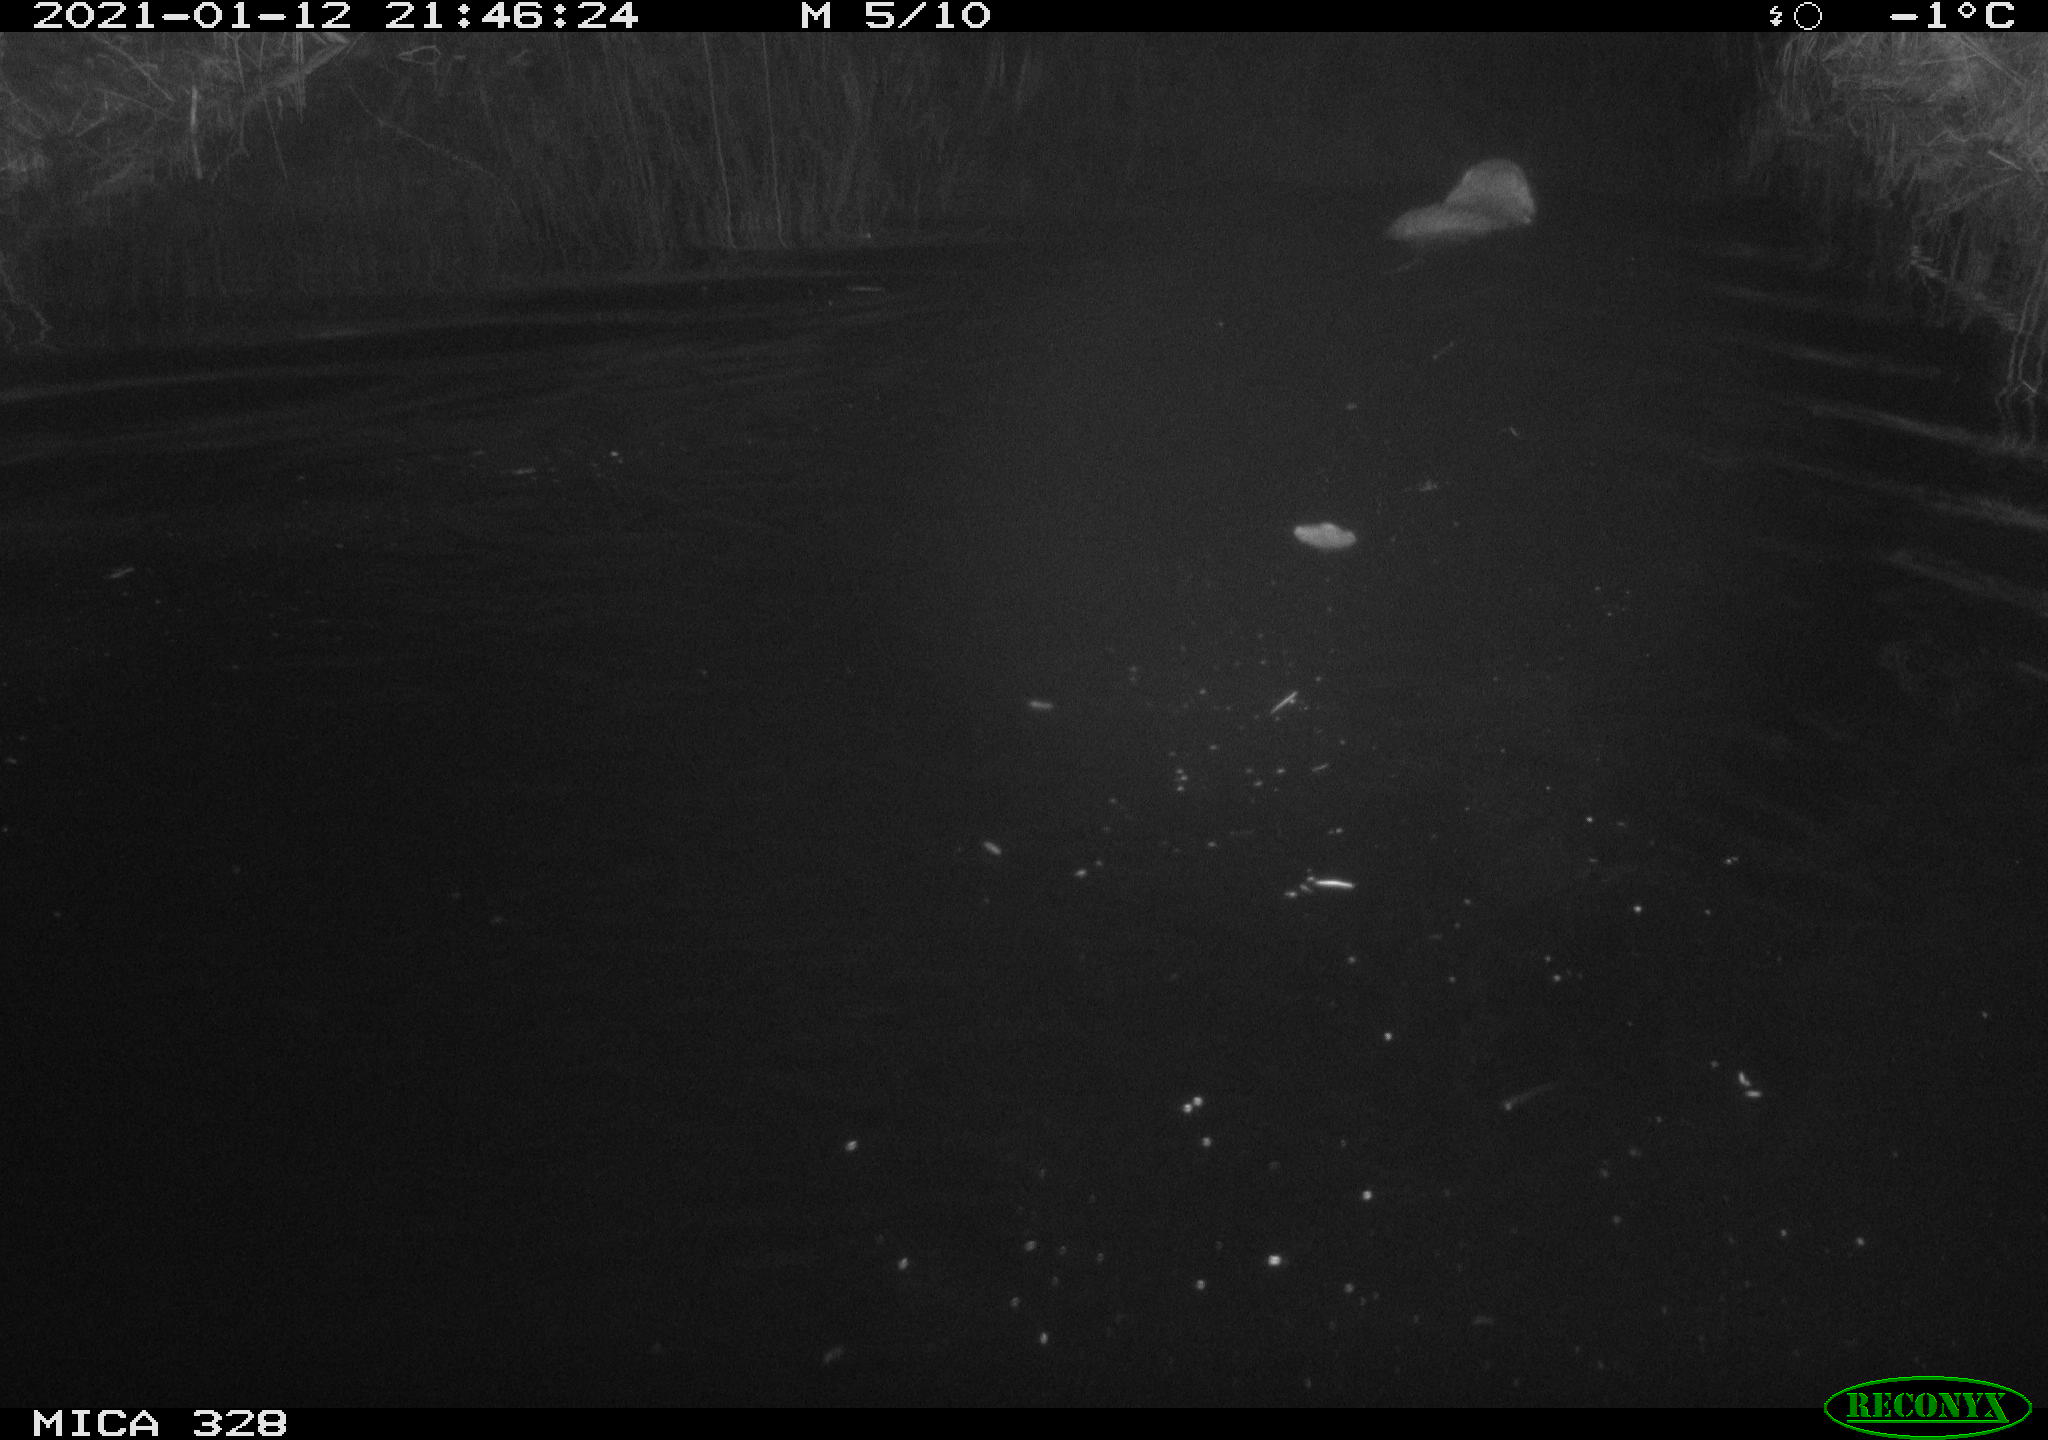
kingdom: Animalia
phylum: Chordata
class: Mammalia
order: Rodentia
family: Myocastoridae
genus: Myocastor
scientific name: Myocastor coypus
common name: Coypu
